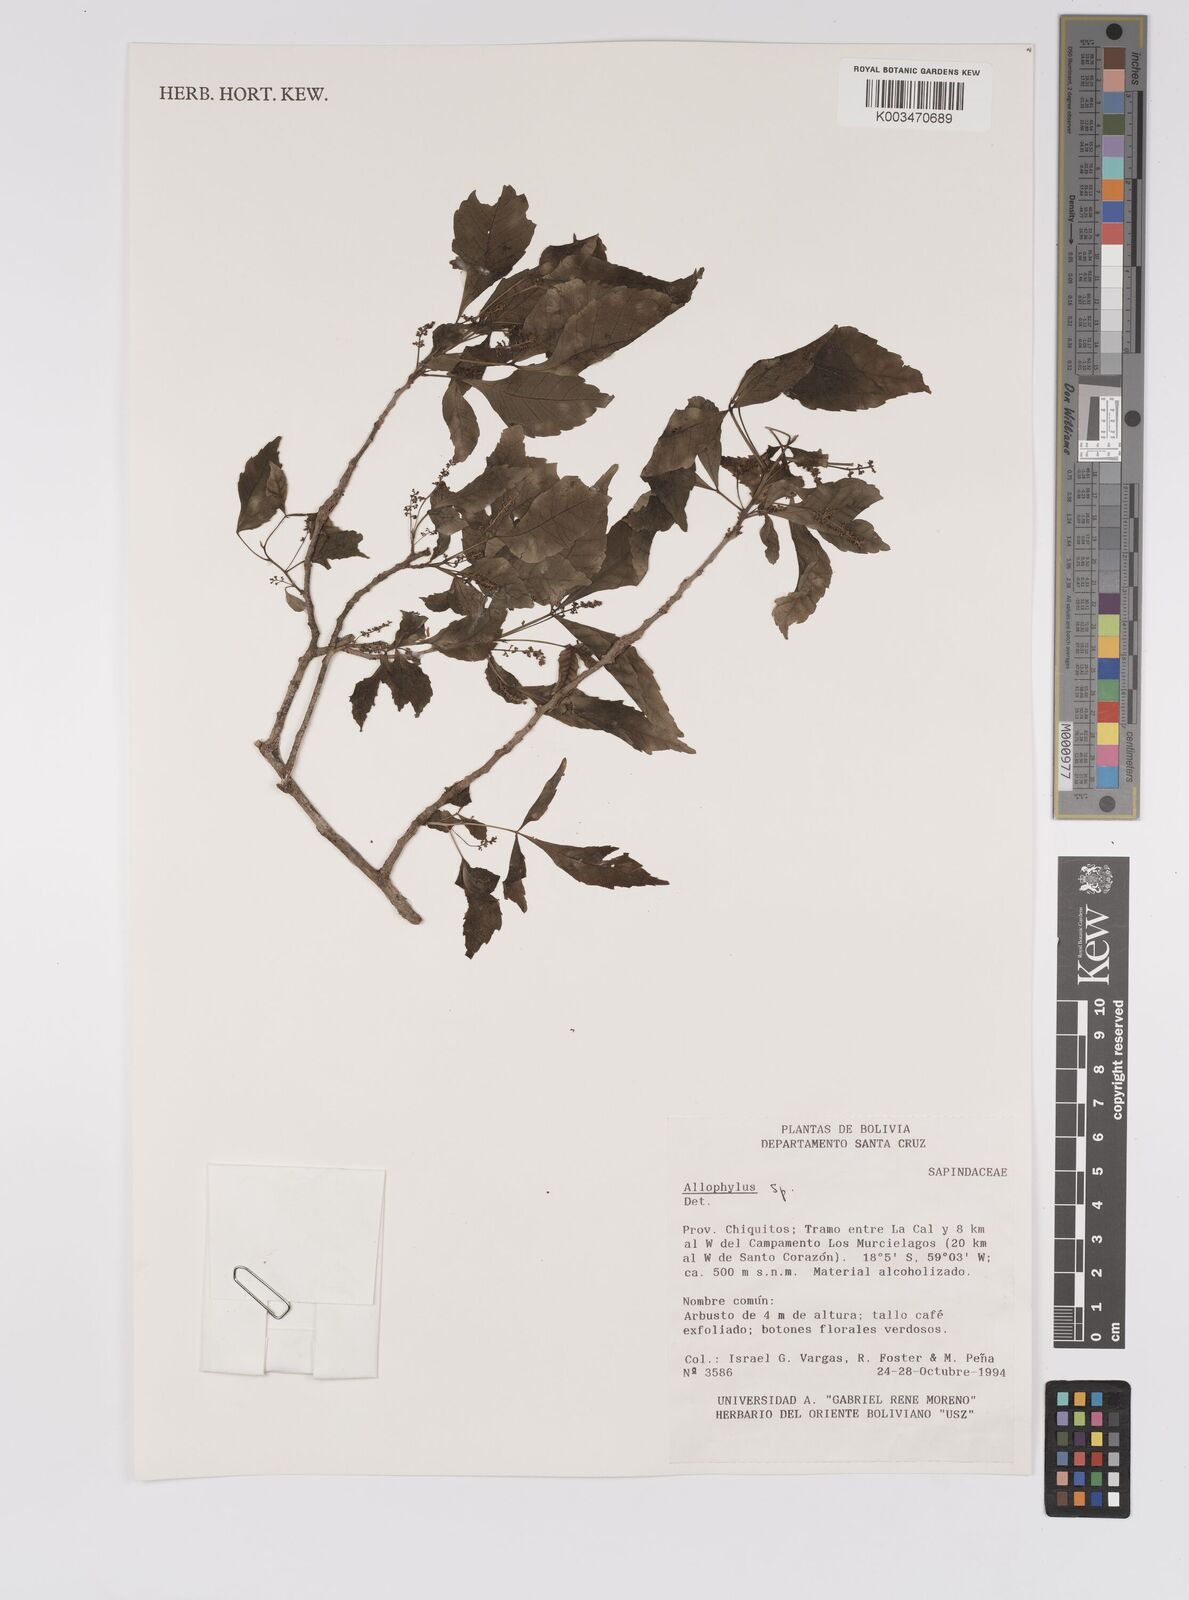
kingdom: Plantae
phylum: Tracheophyta
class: Magnoliopsida
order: Sapindales
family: Sapindaceae
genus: Allophylus
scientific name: Allophylus
